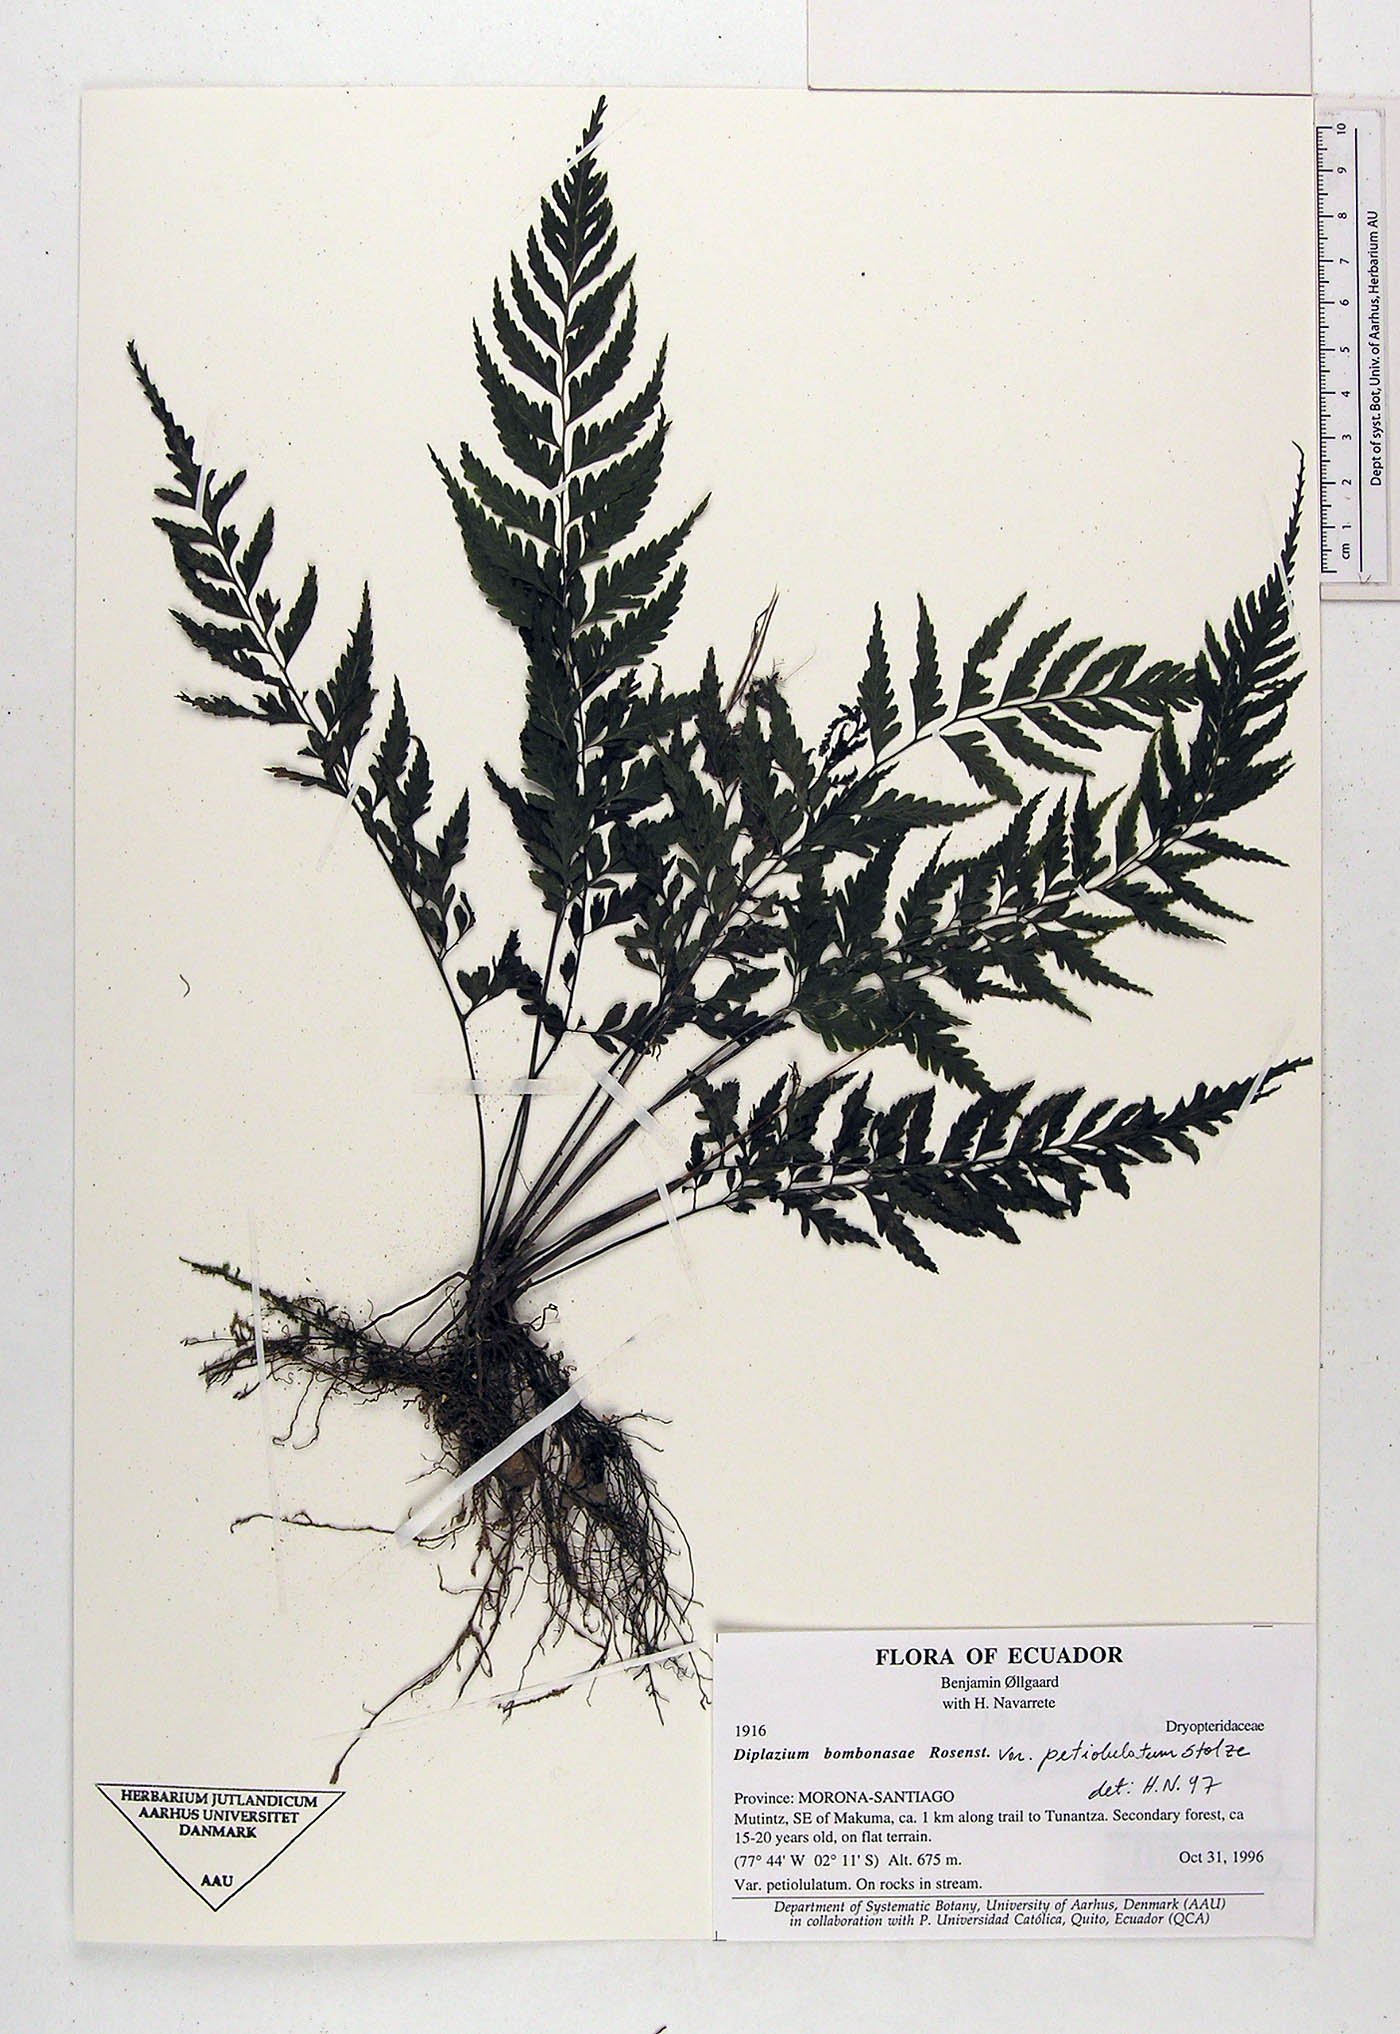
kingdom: Plantae
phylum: Tracheophyta
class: Polypodiopsida
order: Polypodiales
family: Athyriaceae
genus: Diplazium
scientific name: Diplazium bombonasae
